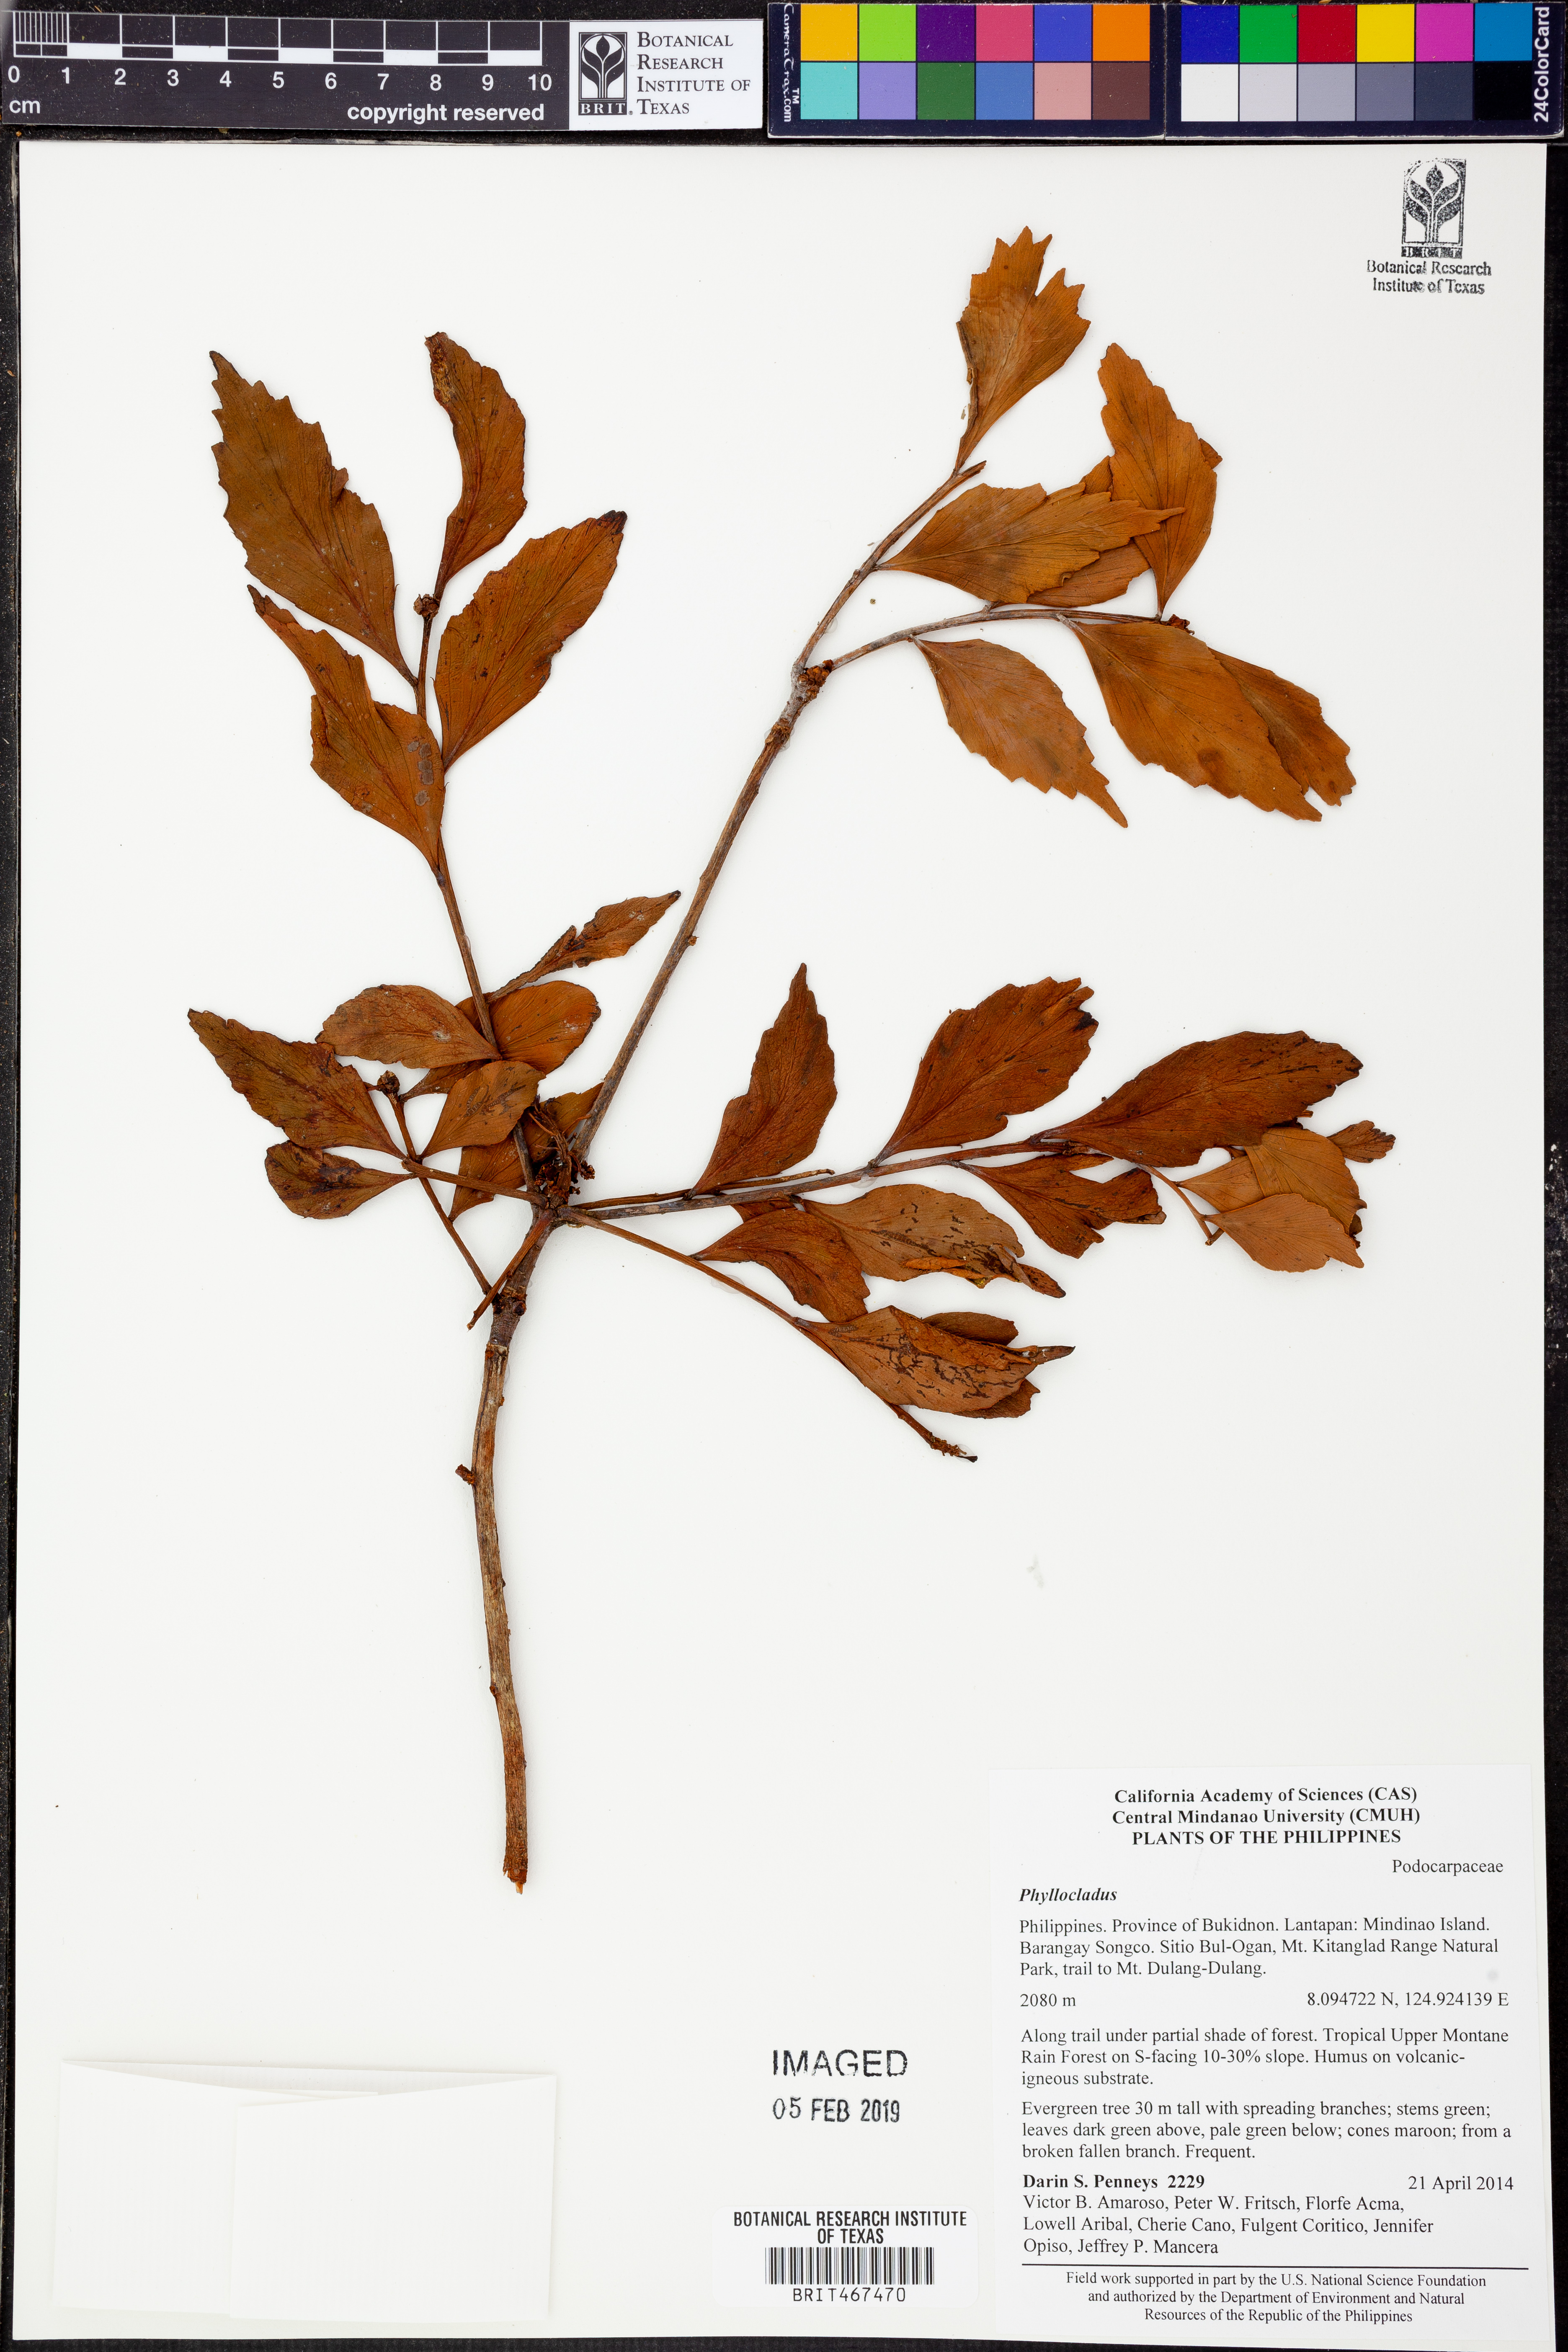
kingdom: Plantae
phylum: Tracheophyta
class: Pinopsida
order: Pinales
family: Phyllocladaceae
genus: Phyllocladus
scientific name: Phyllocladus
